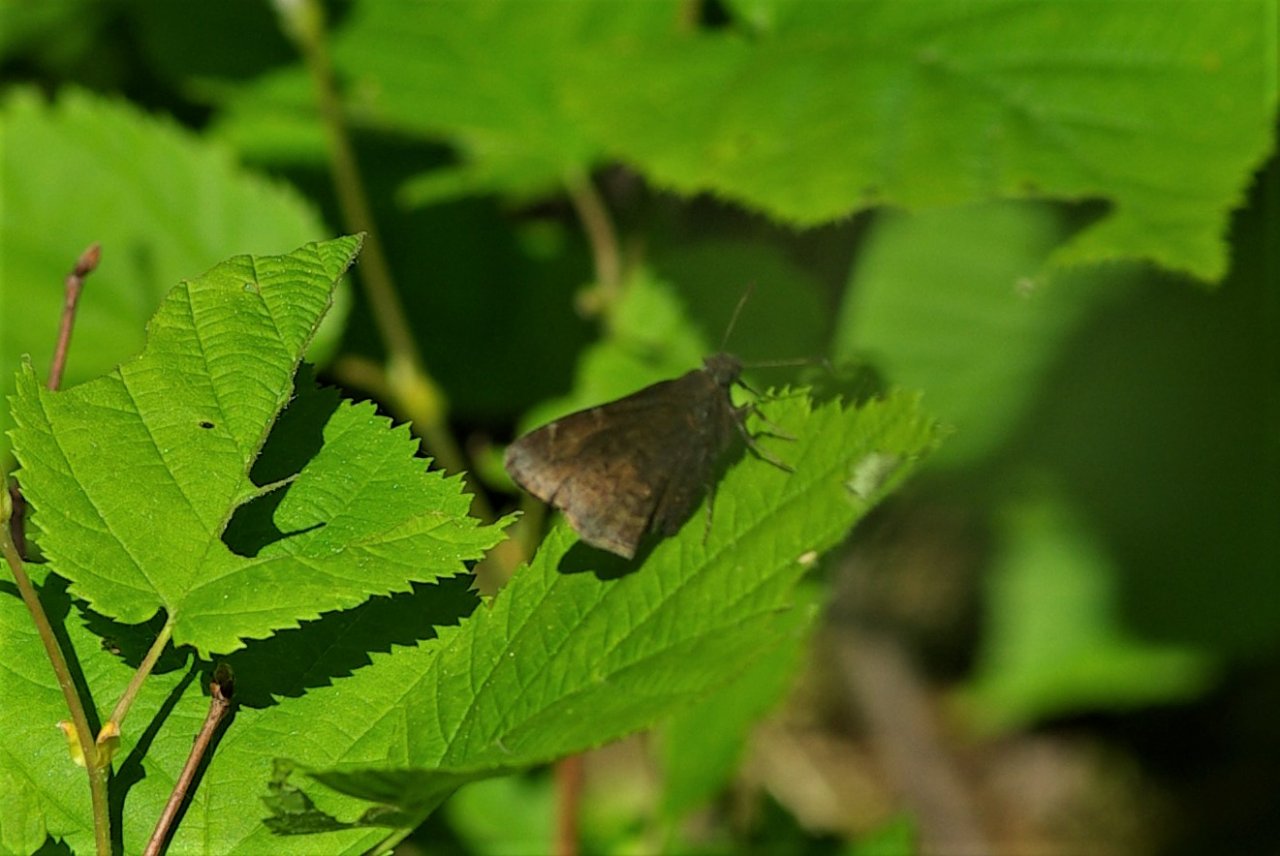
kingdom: Animalia
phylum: Arthropoda
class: Insecta
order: Lepidoptera
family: Hesperiidae
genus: Lon
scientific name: Lon hobomok
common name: Hobomok Skipper
